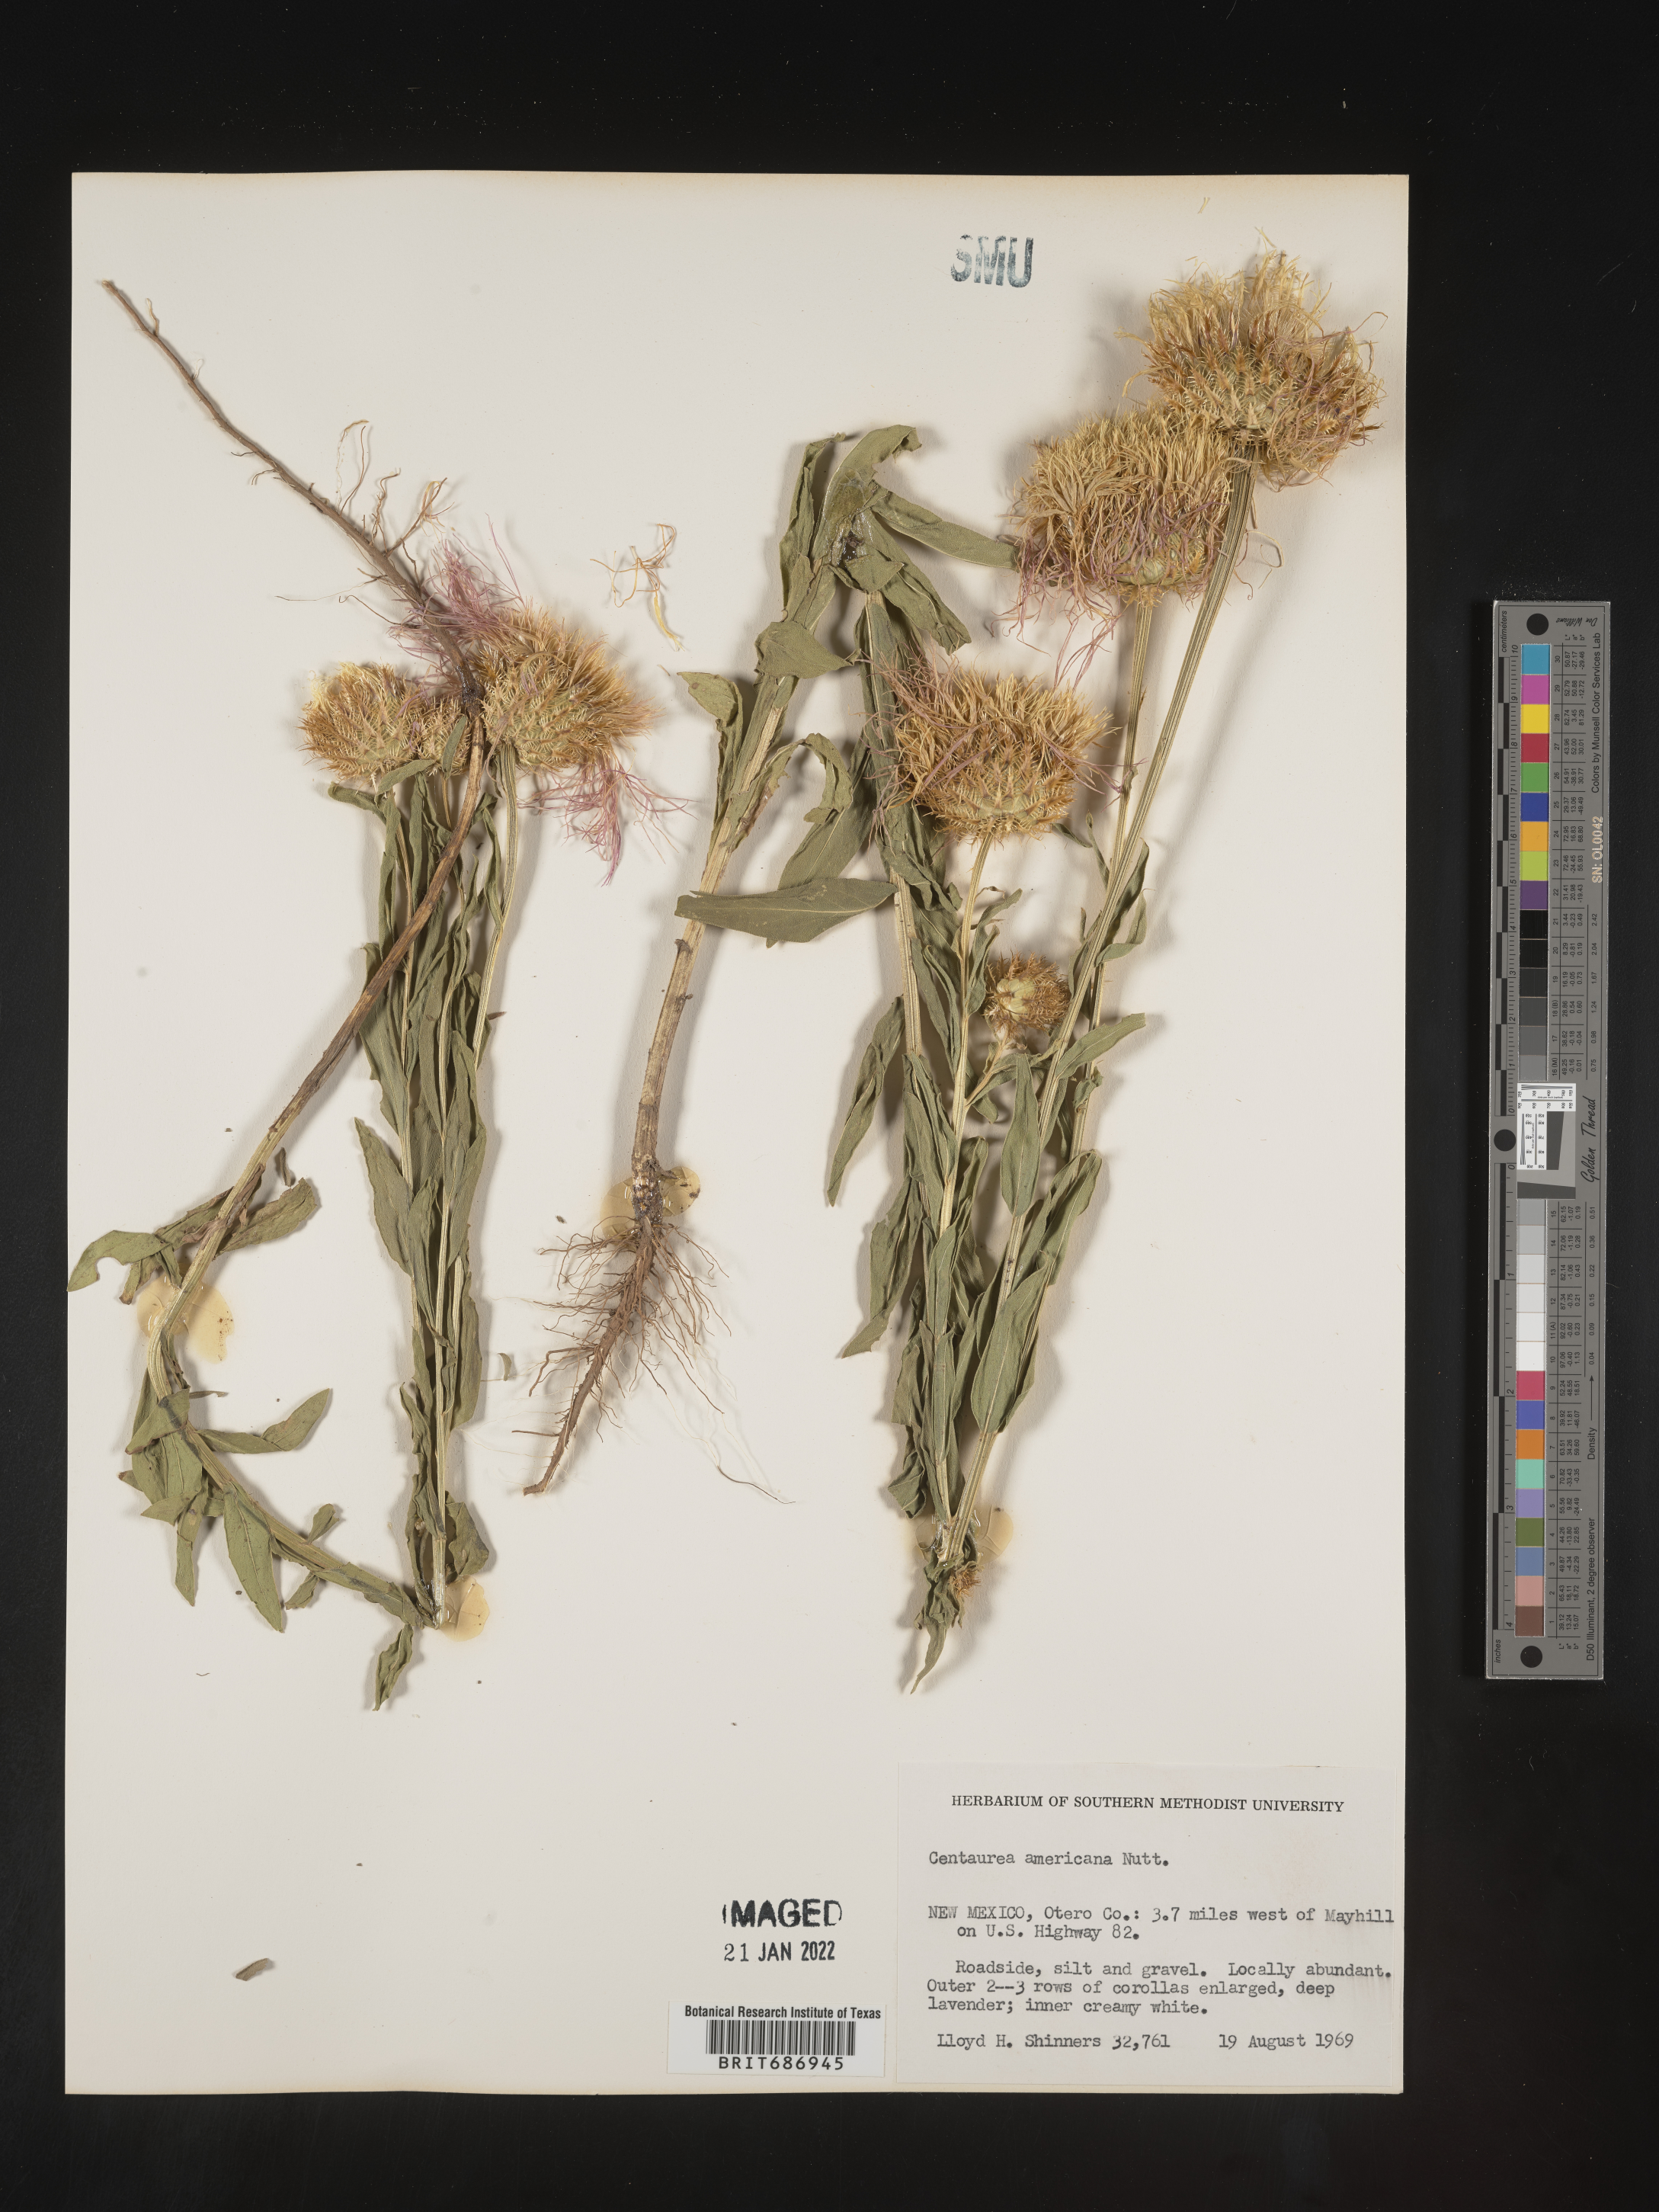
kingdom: Plantae
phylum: Tracheophyta
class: Magnoliopsida
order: Asterales
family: Asteraceae
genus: Plectocephalus
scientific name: Plectocephalus americanus
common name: American basket-flower
